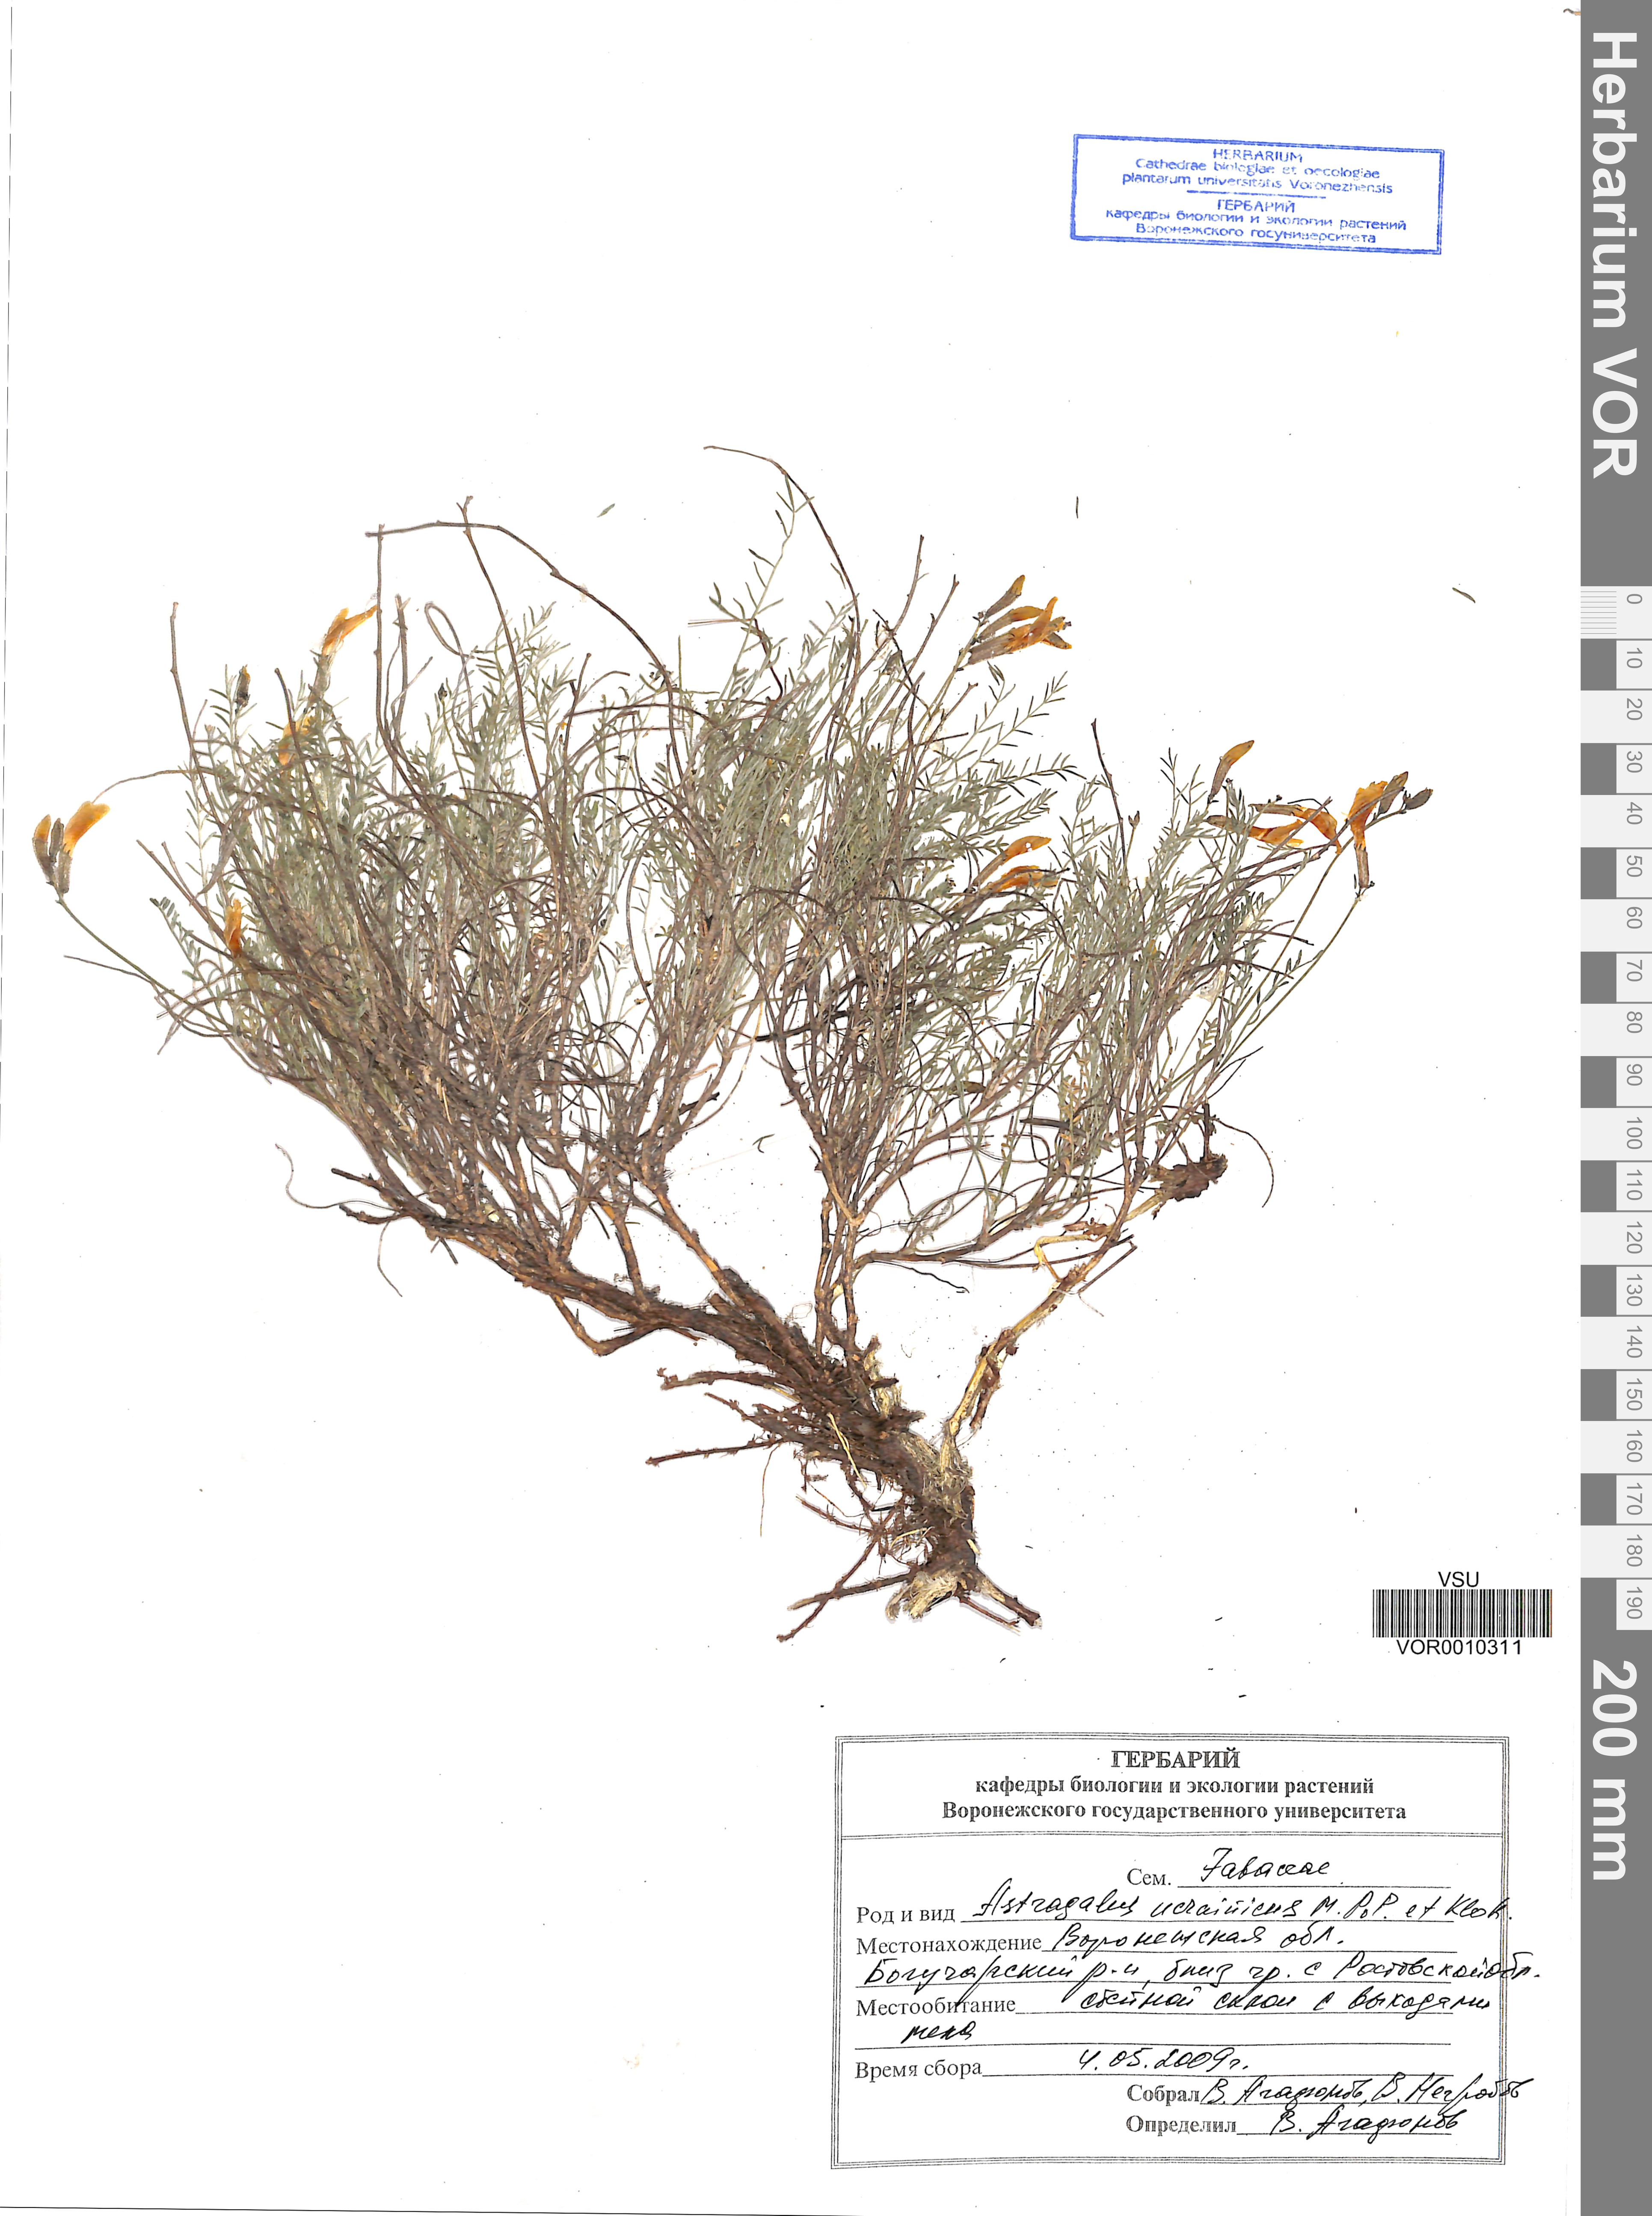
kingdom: Plantae
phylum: Tracheophyta
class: Magnoliopsida
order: Fabales
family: Fabaceae
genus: Astragalus
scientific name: Astragalus ucrainicus
